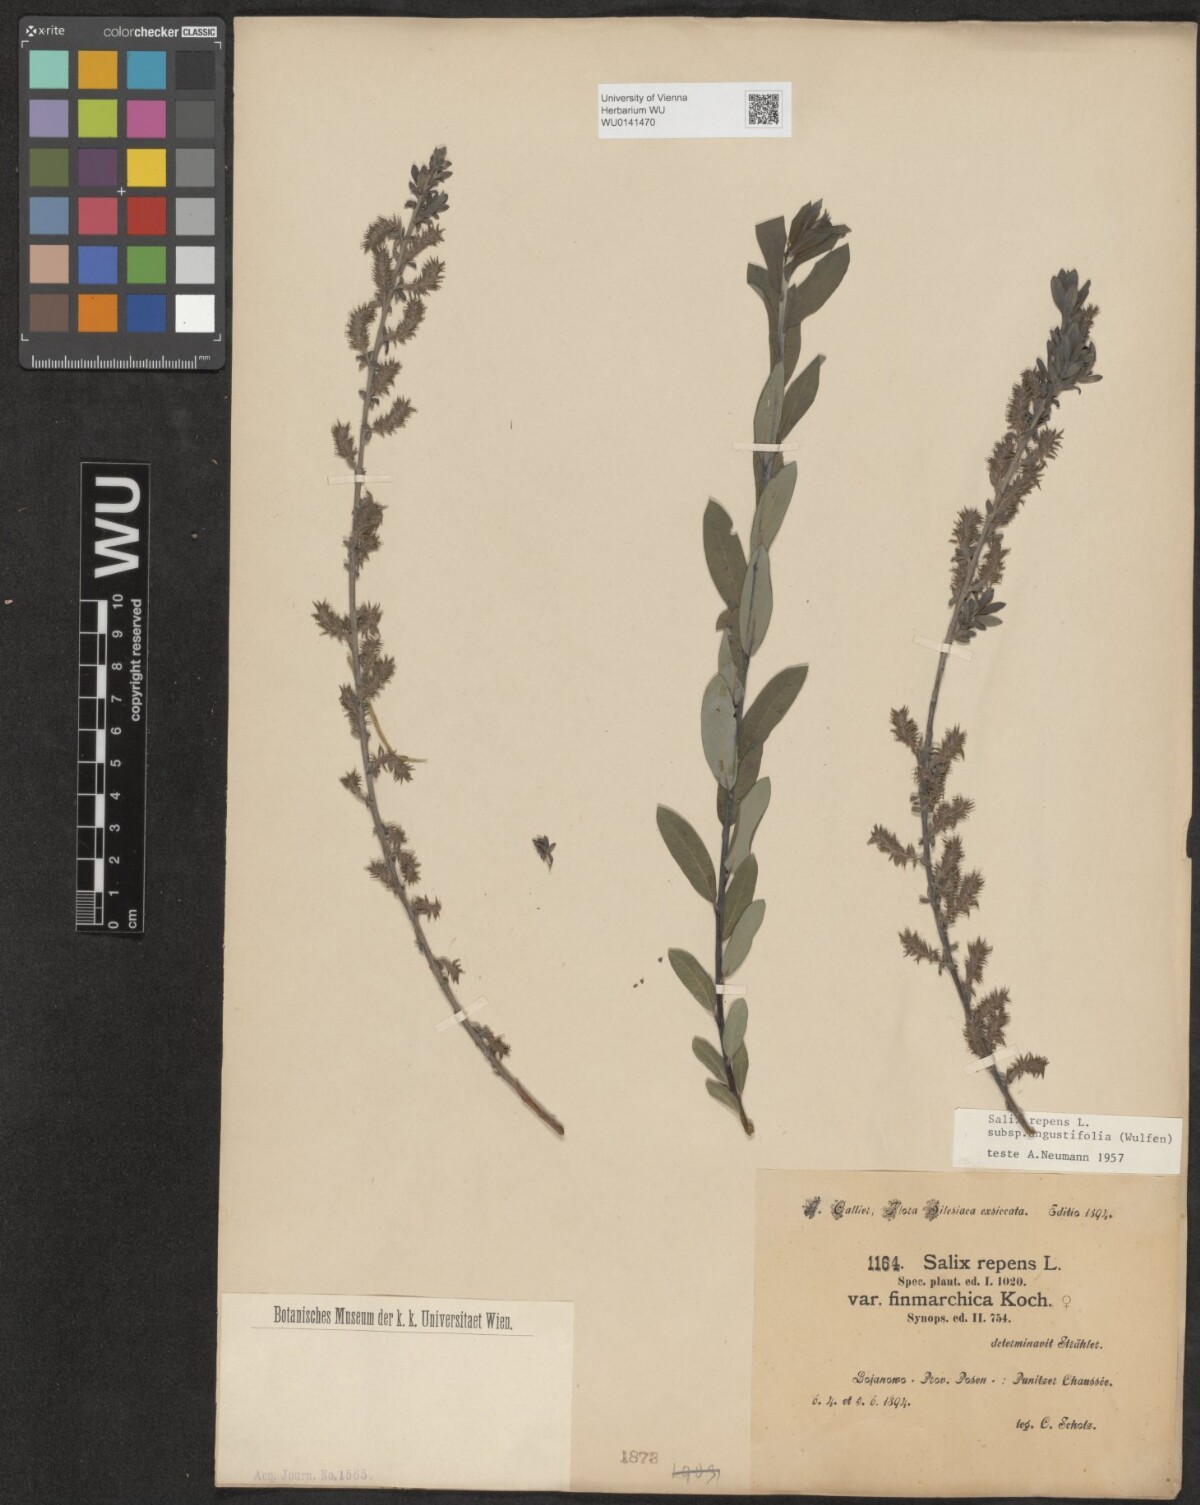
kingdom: Plantae
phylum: Tracheophyta
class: Magnoliopsida
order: Malpighiales
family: Salicaceae
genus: Salix
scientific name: Salix rosmarinifolia
